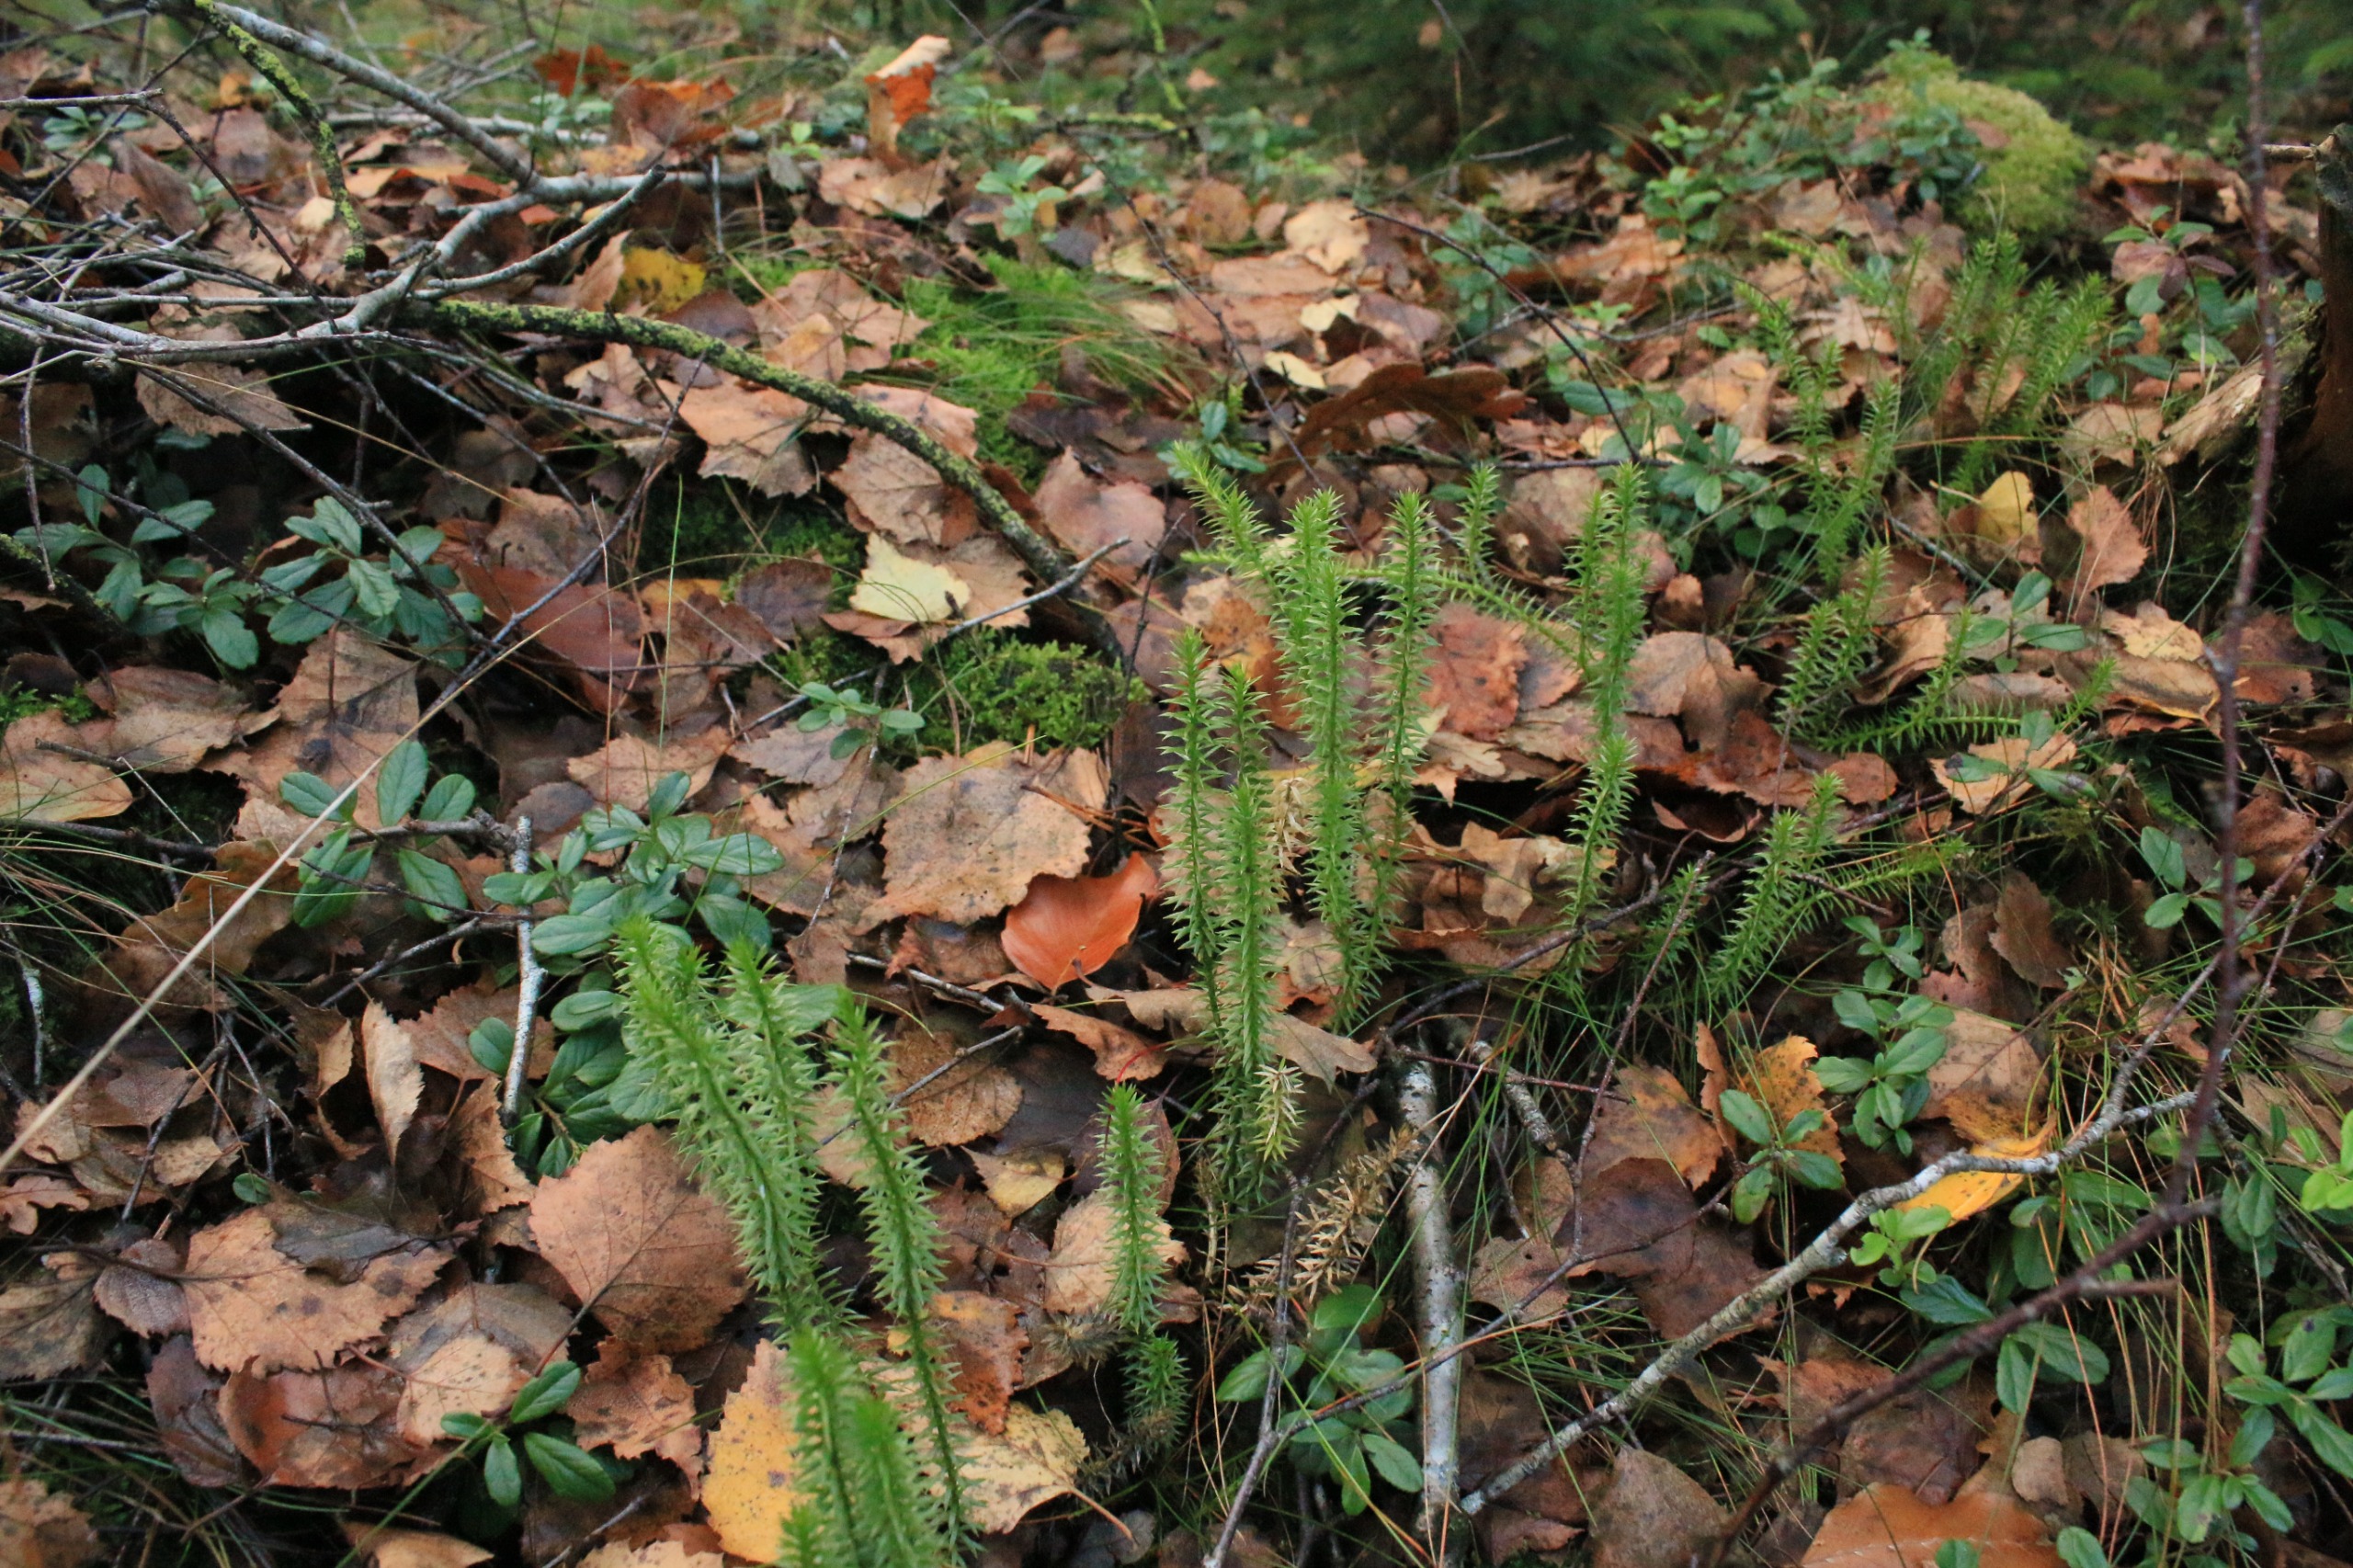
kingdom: Plantae
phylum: Tracheophyta
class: Lycopodiopsida
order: Lycopodiales
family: Lycopodiaceae
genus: Spinulum
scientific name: Spinulum annotinum
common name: Femradet ulvefod
